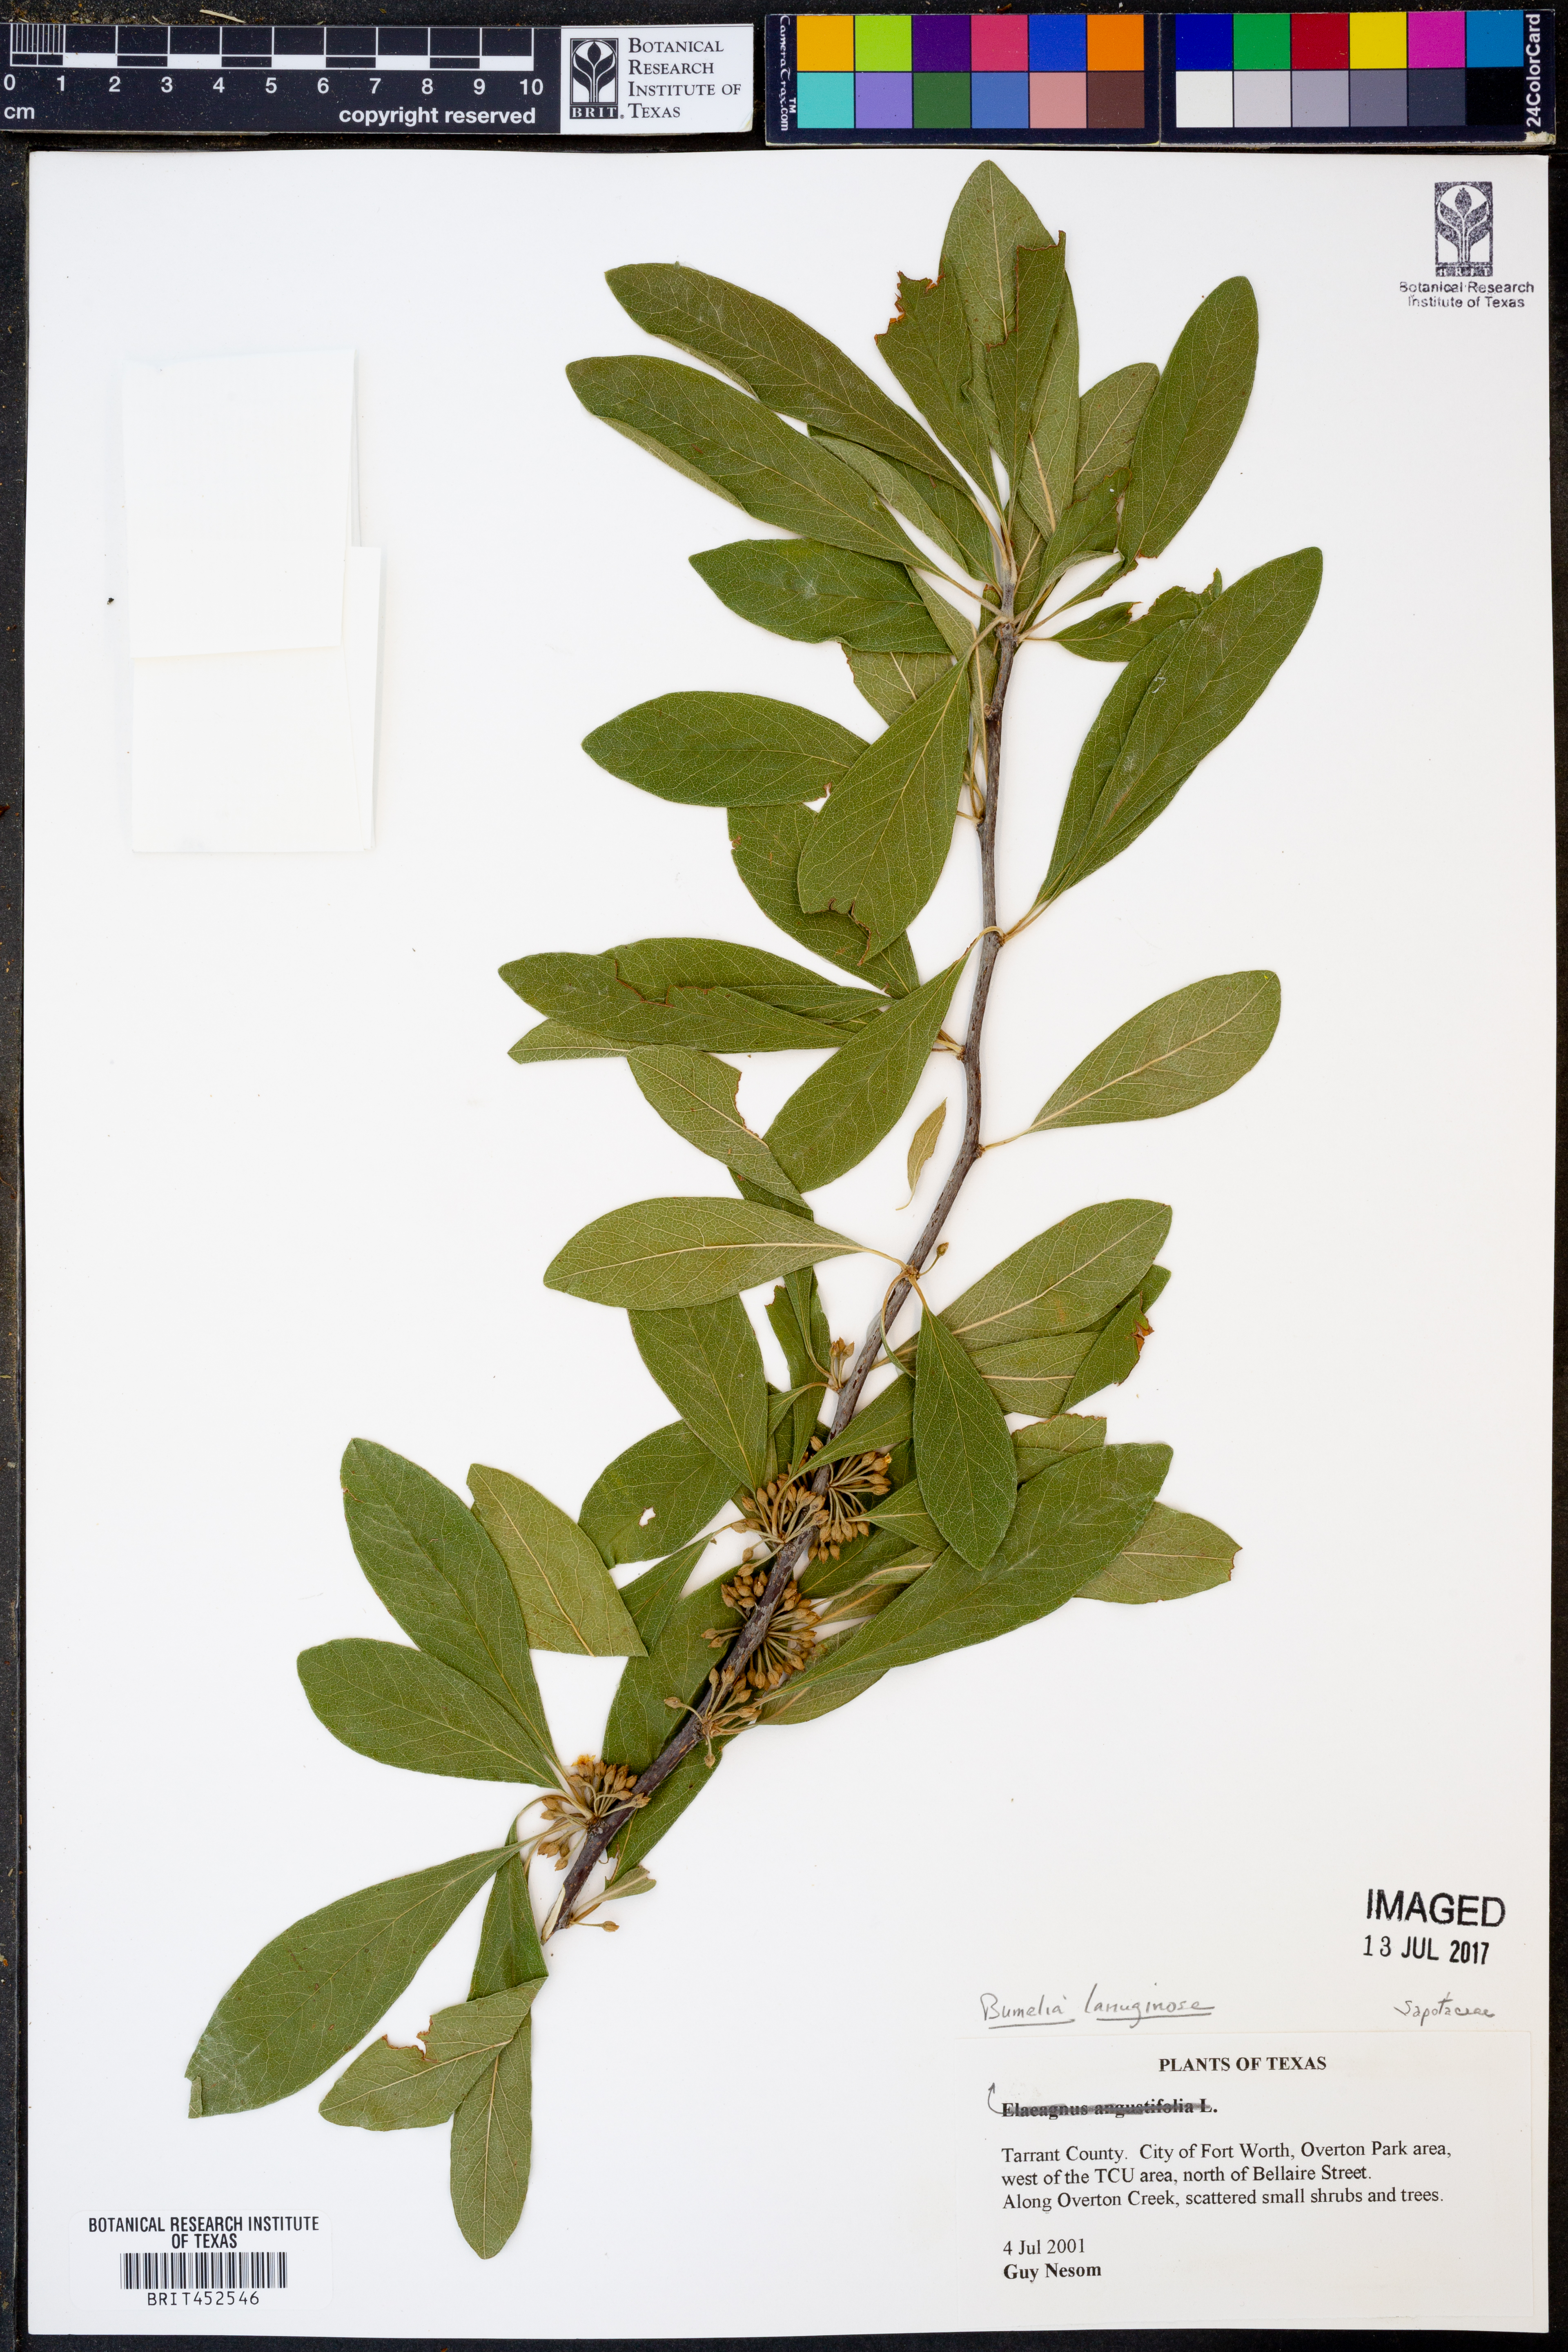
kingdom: Plantae
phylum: Tracheophyta
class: Magnoliopsida
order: Ericales
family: Sapotaceae
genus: Sideroxylon
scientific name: Sideroxylon lanuginosum
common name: Chittamwood
